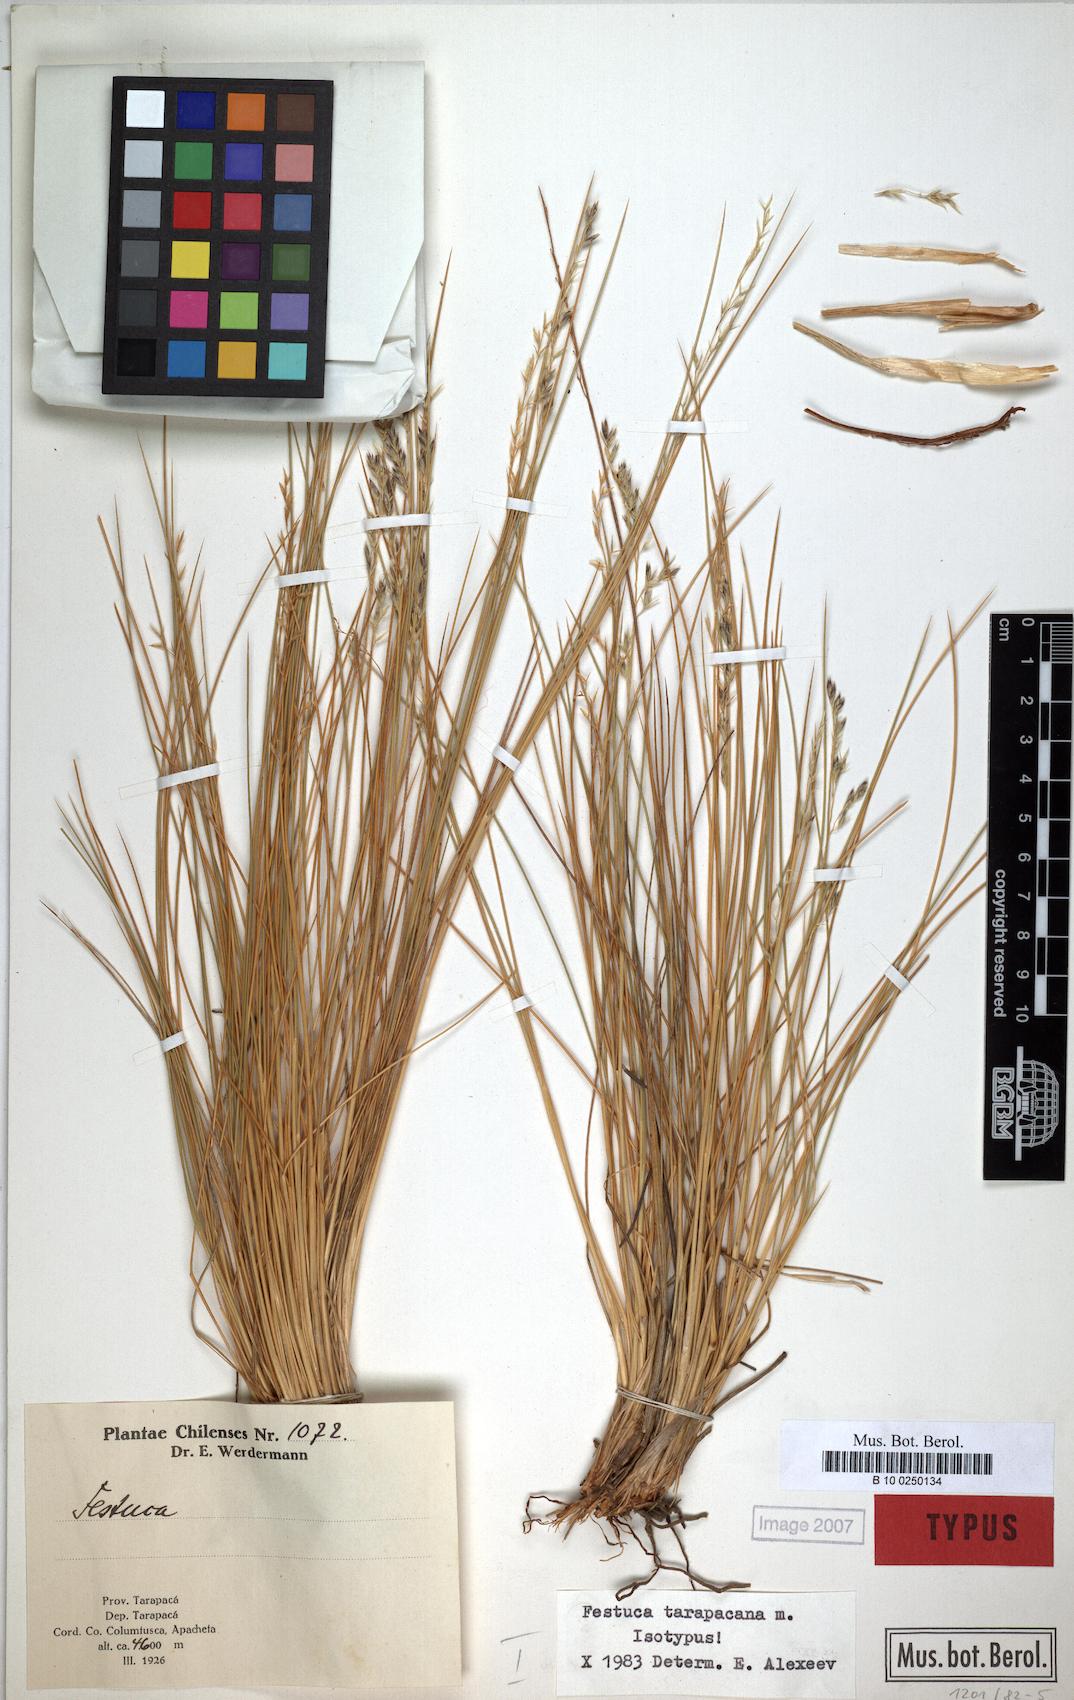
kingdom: Plantae
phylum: Tracheophyta
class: Liliopsida
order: Poales
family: Poaceae
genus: Festuca
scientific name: Festuca
